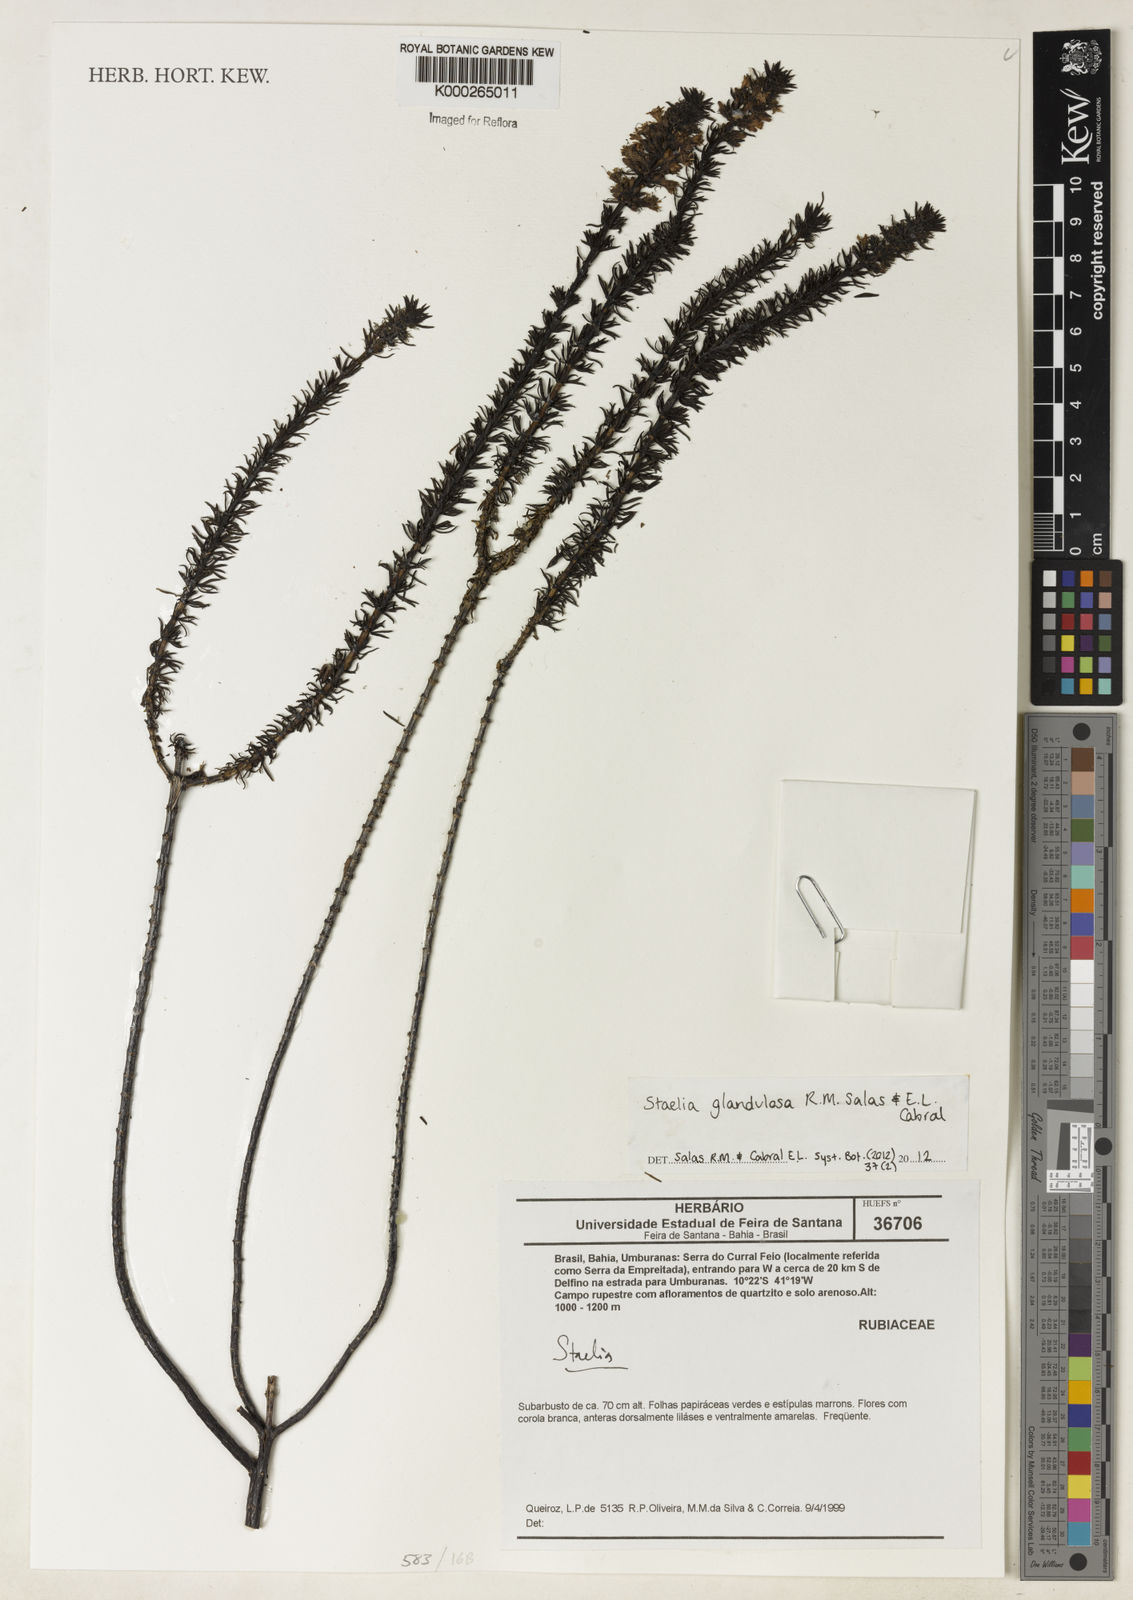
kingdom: Plantae
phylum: Tracheophyta
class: Magnoliopsida
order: Gentianales
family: Rubiaceae
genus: Staelia
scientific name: Staelia
